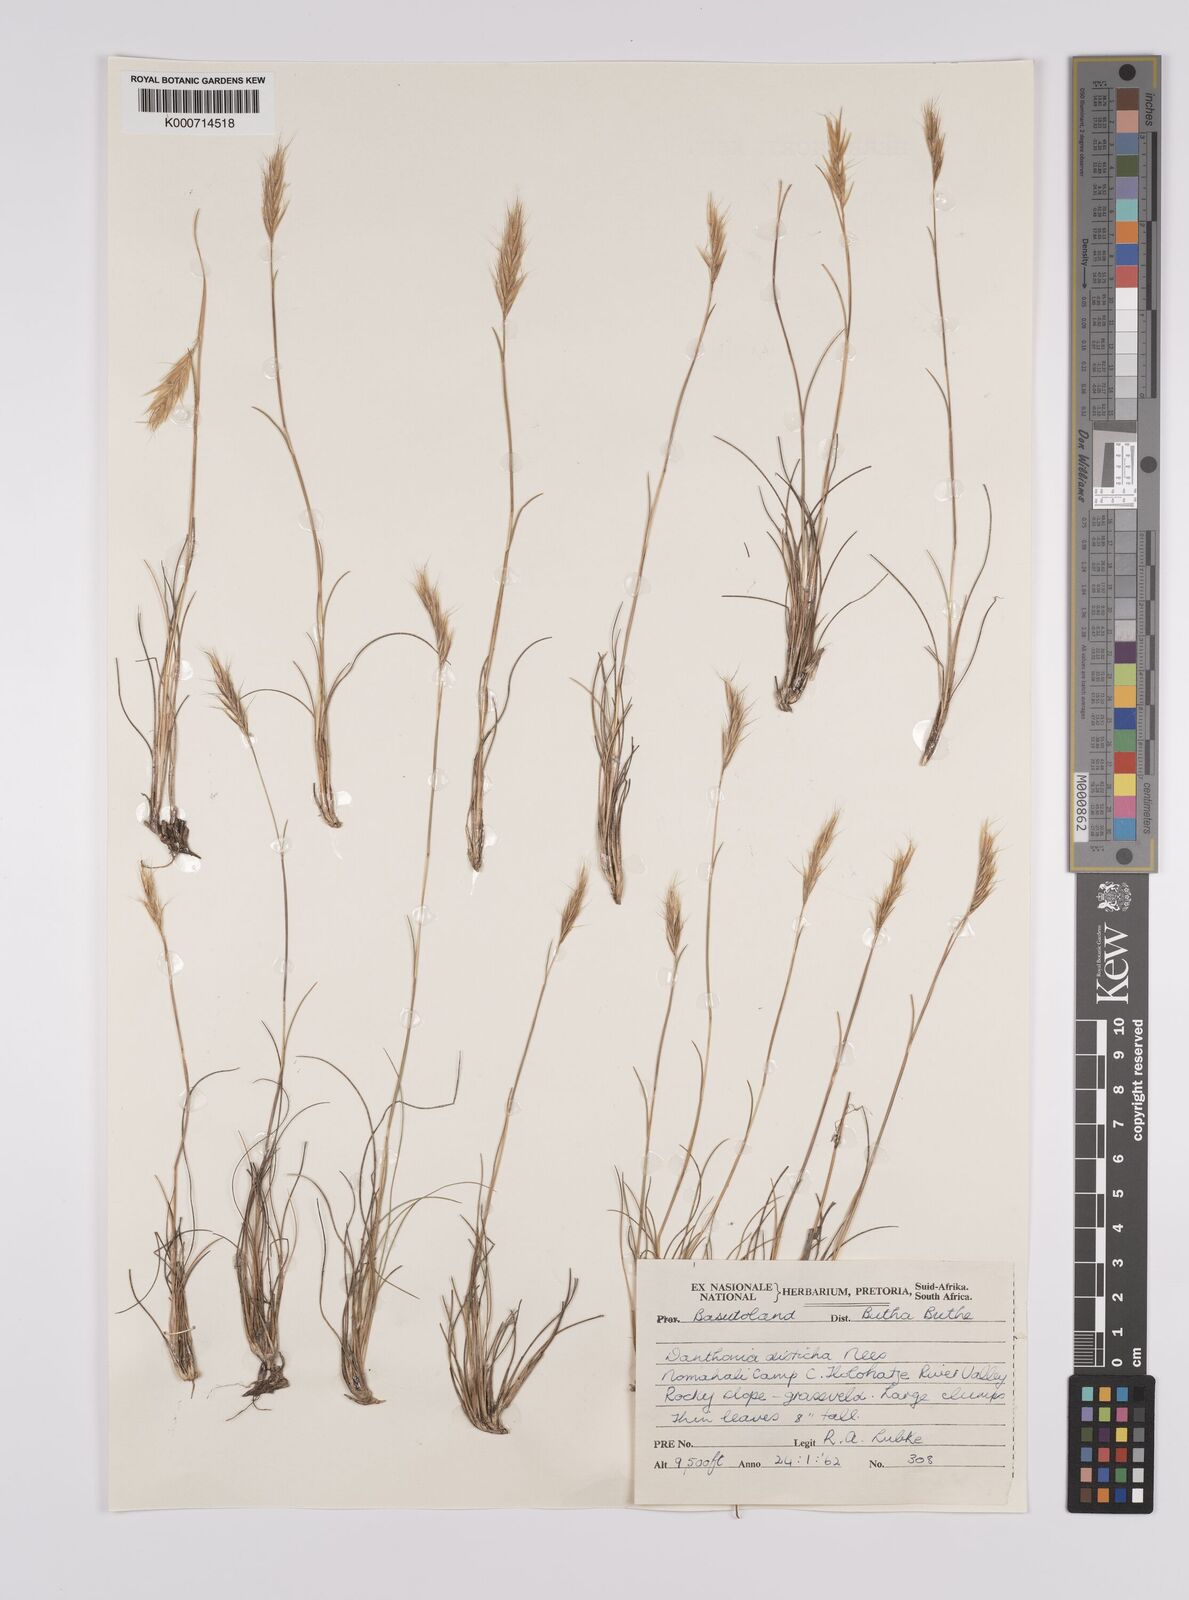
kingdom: Plantae
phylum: Tracheophyta
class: Liliopsida
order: Poales
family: Poaceae
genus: Tenaxia
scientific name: Tenaxia disticha
